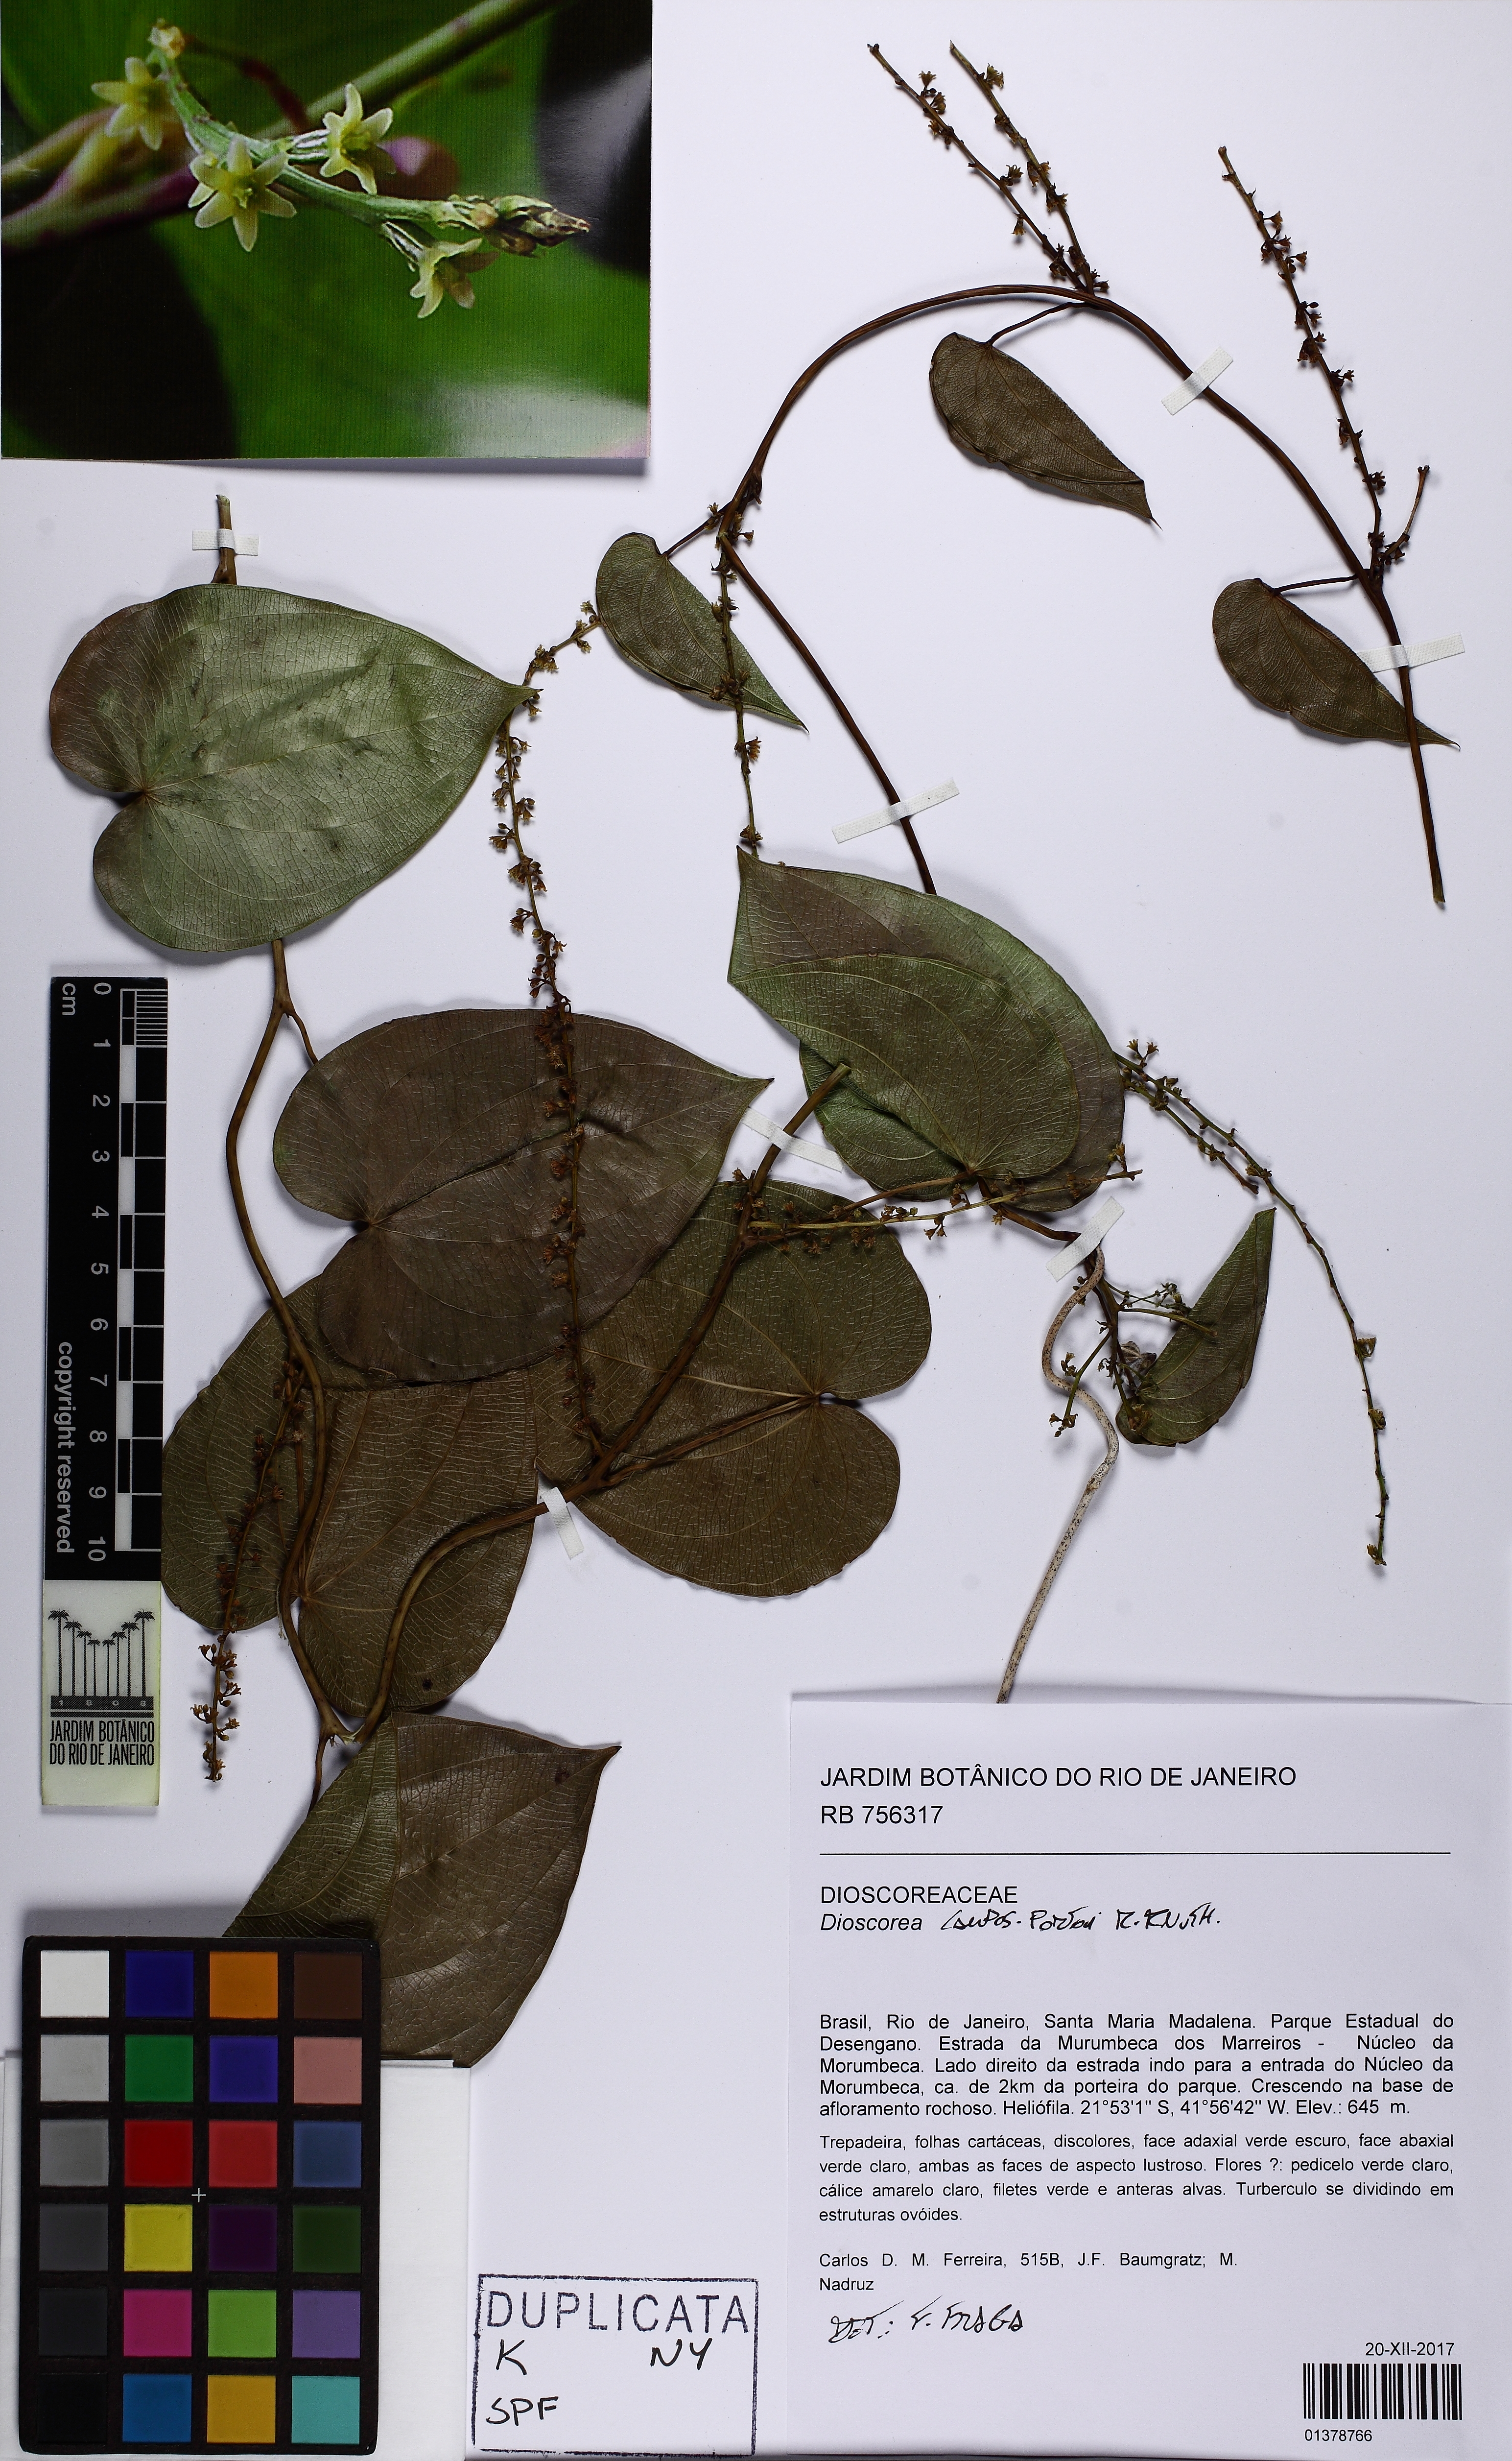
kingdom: Plantae
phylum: Tracheophyta
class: Liliopsida
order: Dioscoreales
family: Dioscoreaceae
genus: Dioscorea
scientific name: Dioscorea campos-portoi
